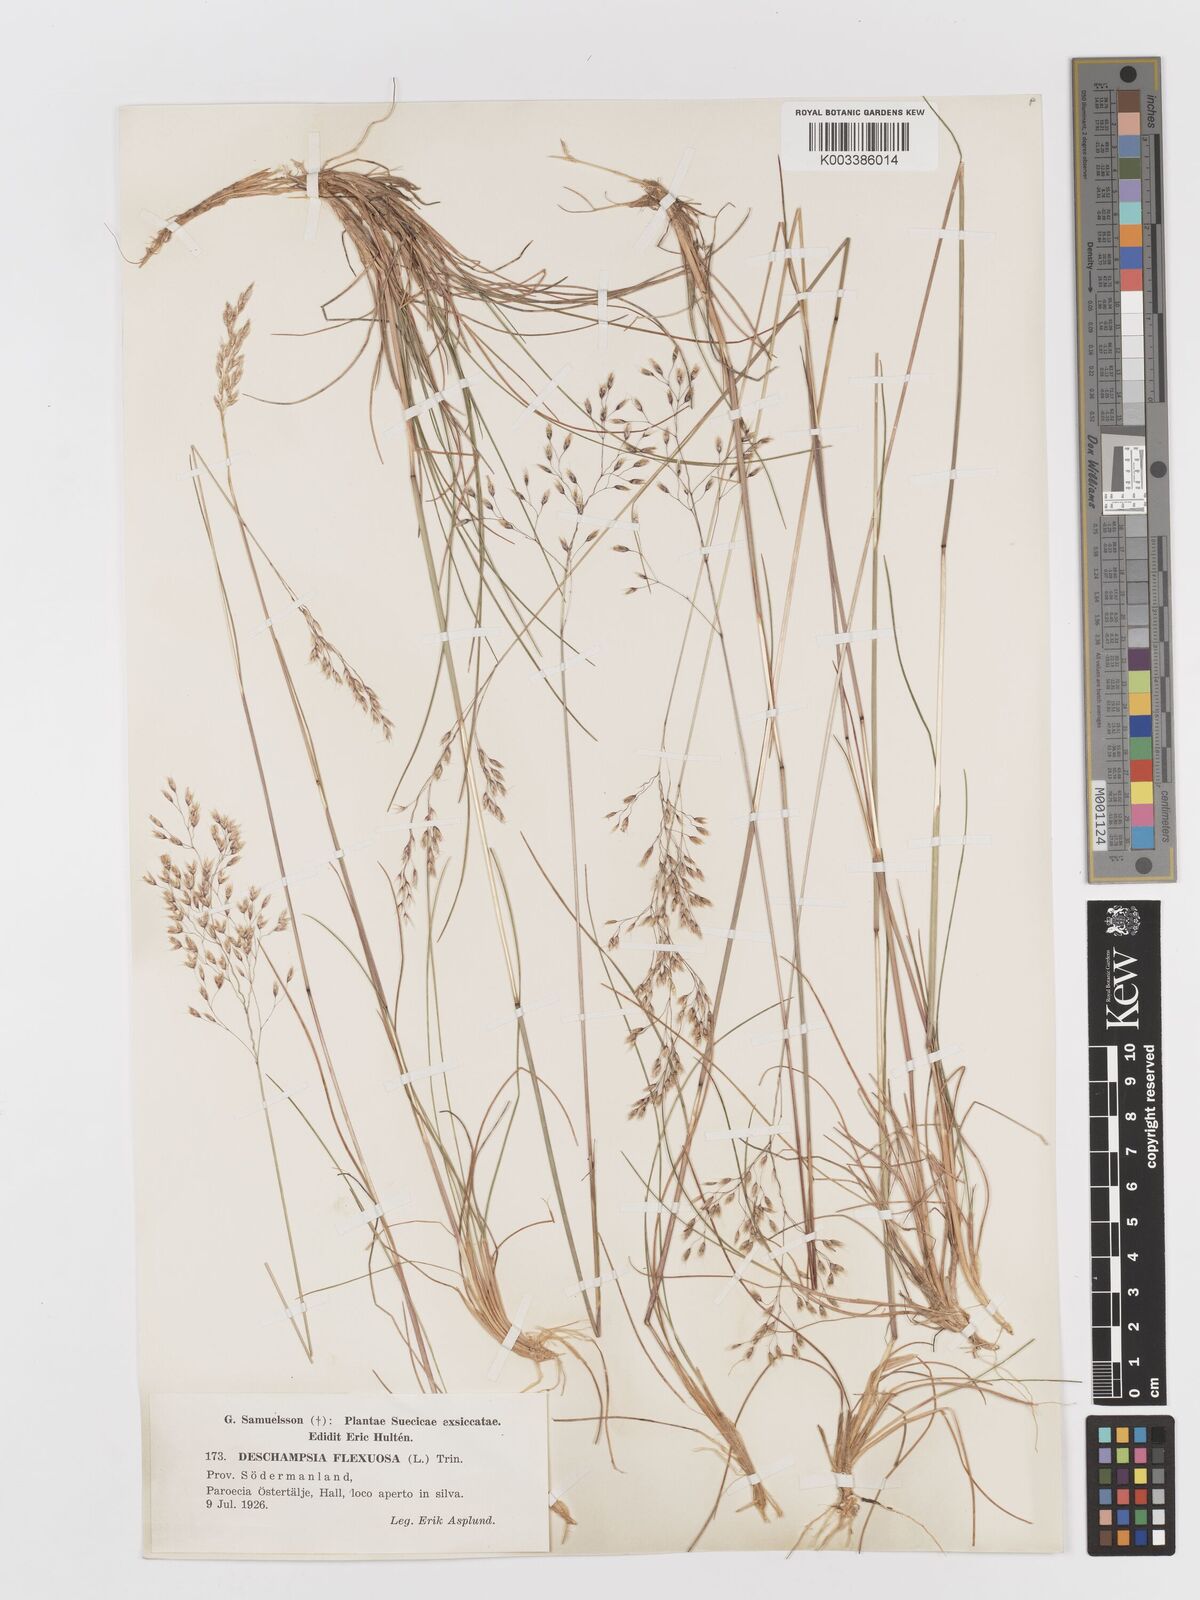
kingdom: Plantae
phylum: Tracheophyta
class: Liliopsida
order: Poales
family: Poaceae
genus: Avenella
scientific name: Avenella flexuosa
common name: Wavy hairgrass
